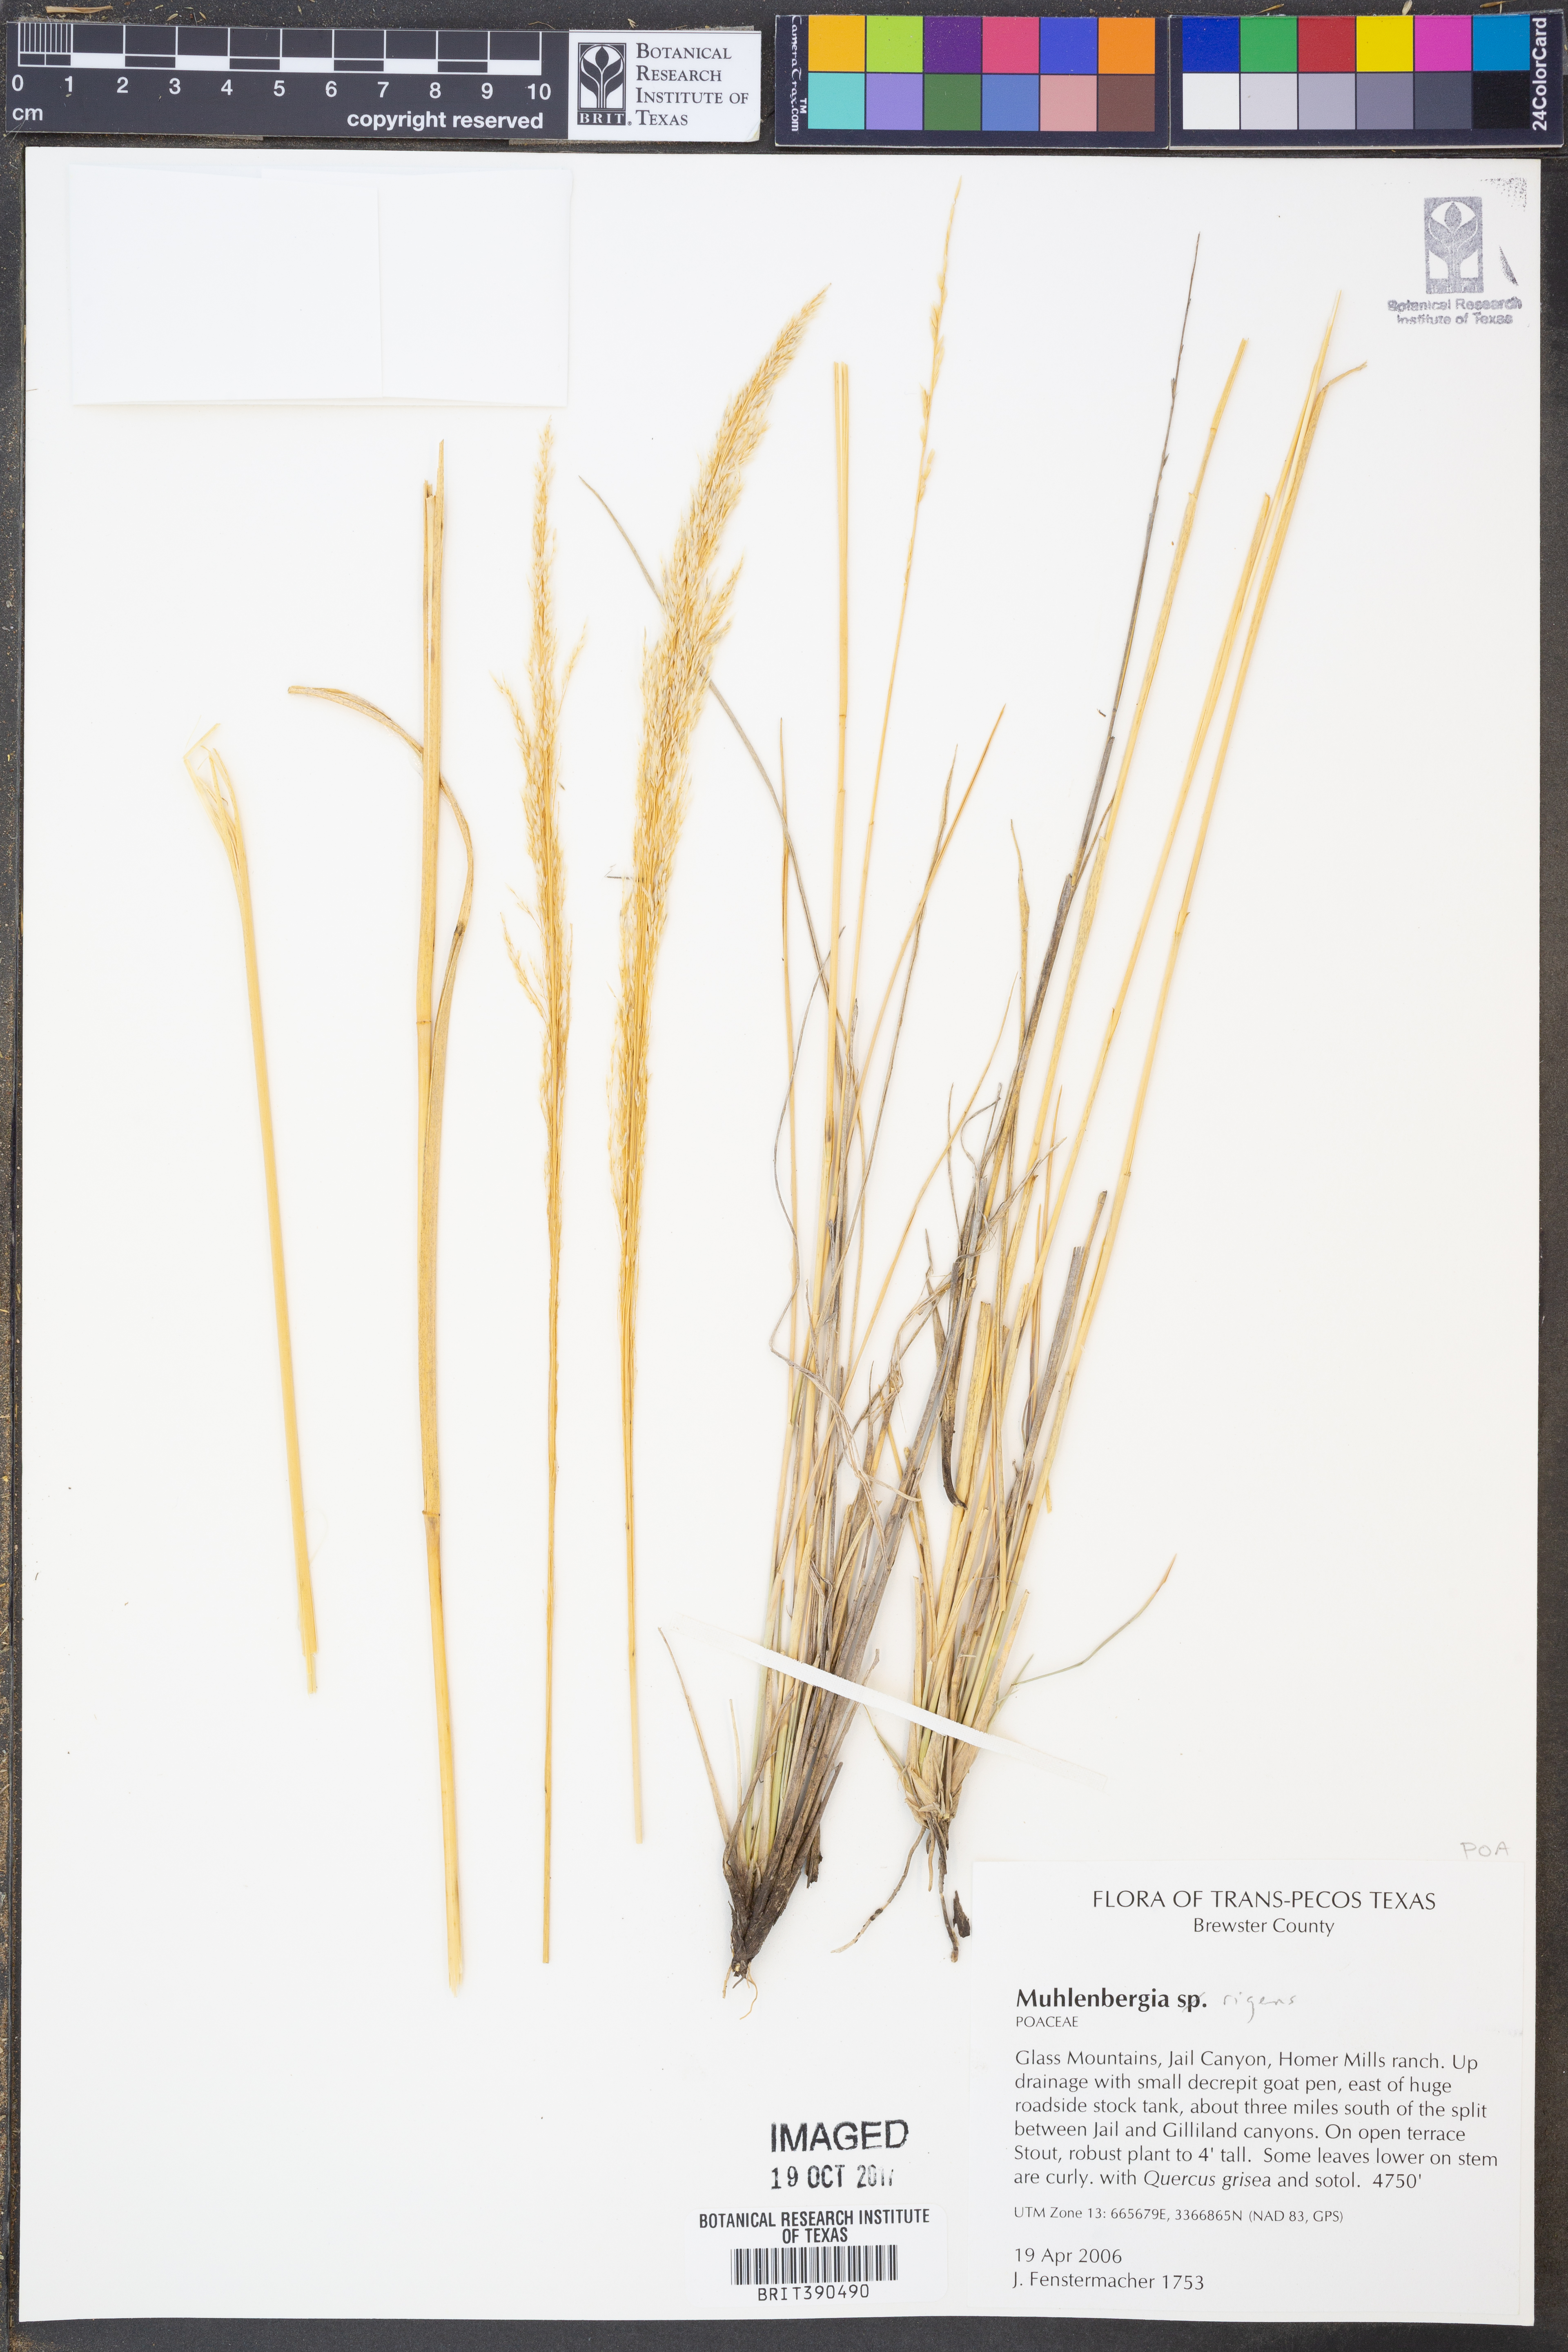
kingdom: Plantae
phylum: Tracheophyta
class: Liliopsida
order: Poales
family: Poaceae
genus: Muhlenbergia
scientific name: Muhlenbergia rigens
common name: Deer grass
